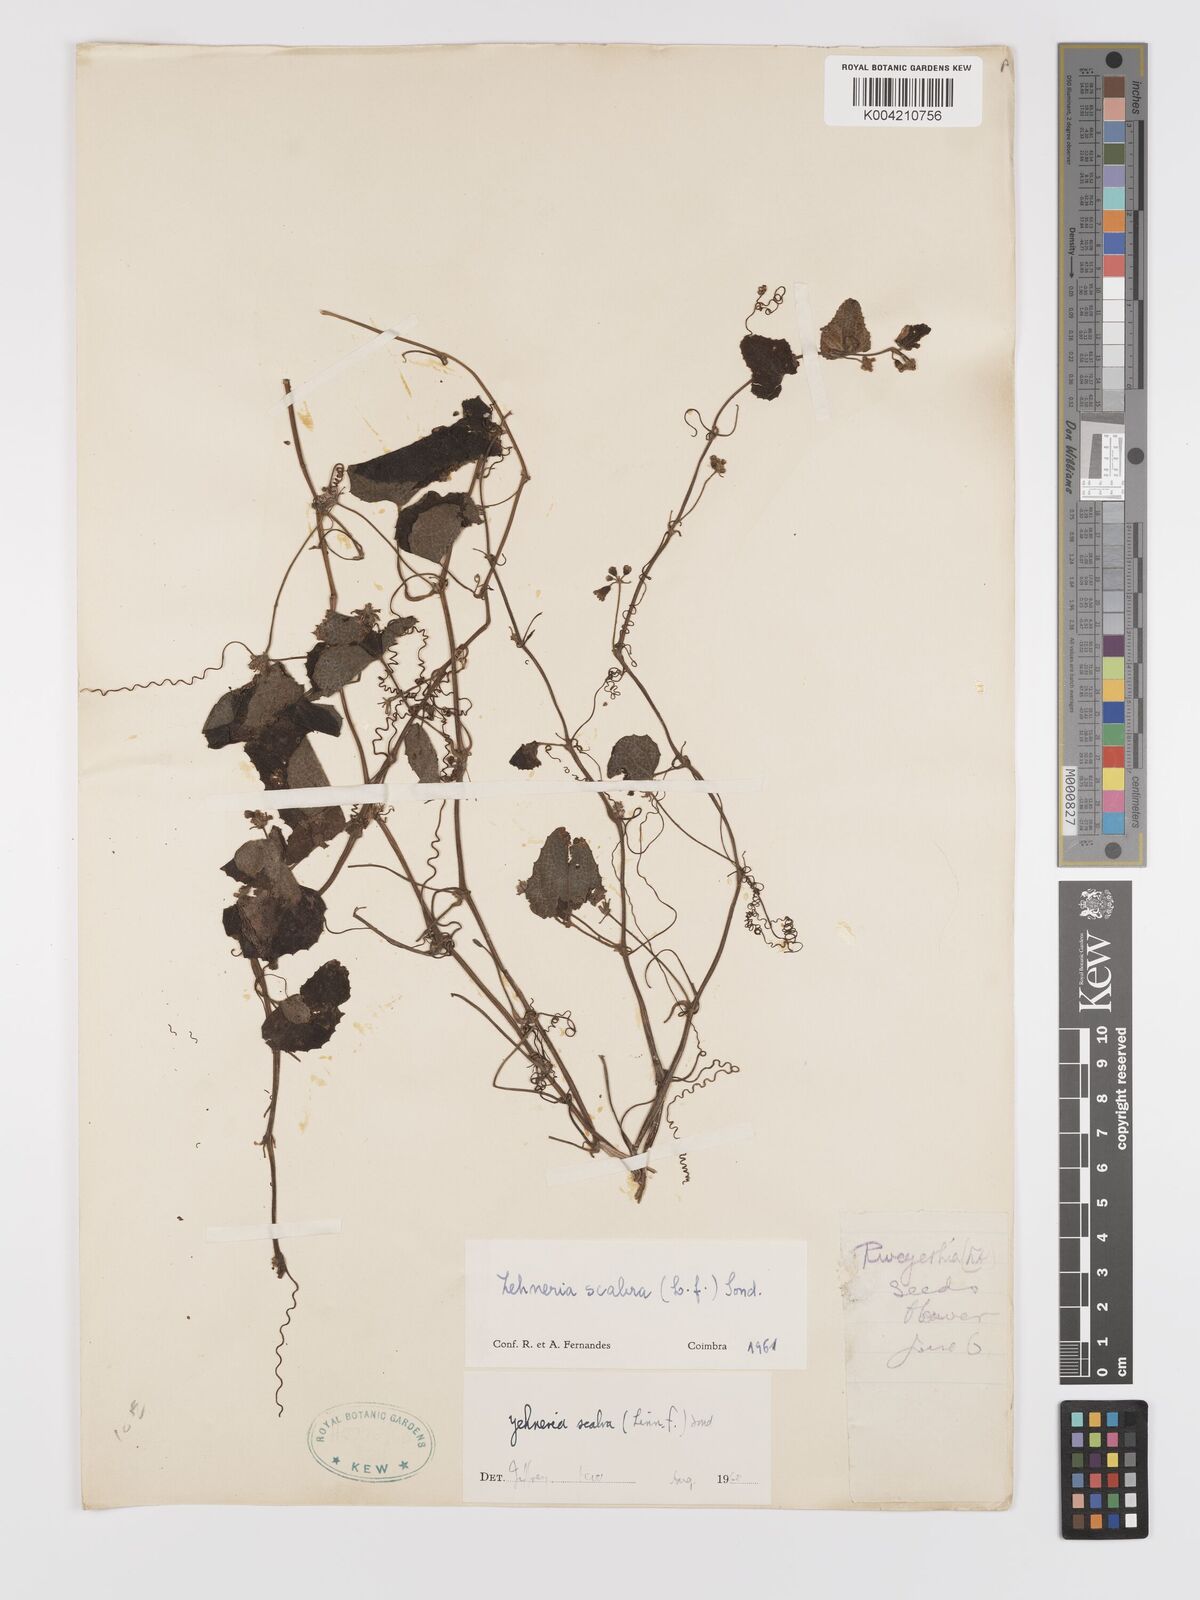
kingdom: Plantae
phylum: Tracheophyta
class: Magnoliopsida
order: Cucurbitales
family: Cucurbitaceae
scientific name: Cucurbitaceae
